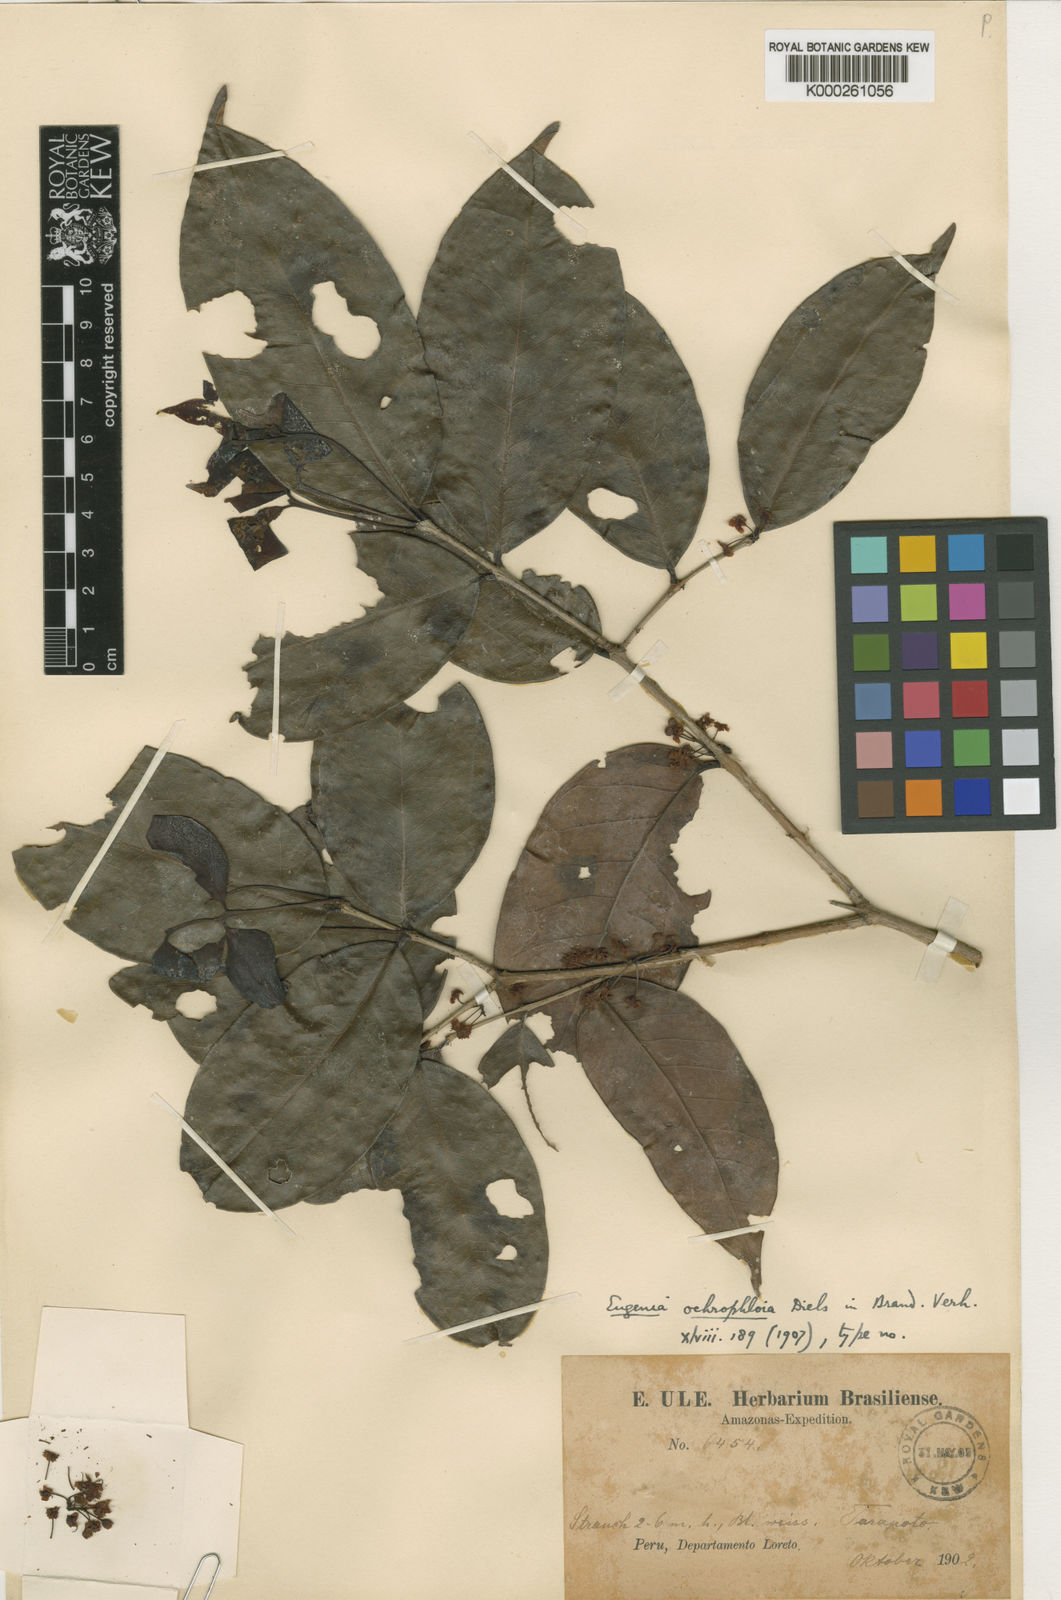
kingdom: Plantae
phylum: Tracheophyta
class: Magnoliopsida
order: Myrtales
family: Myrtaceae
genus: Eugenia
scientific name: Eugenia ochrophloea
